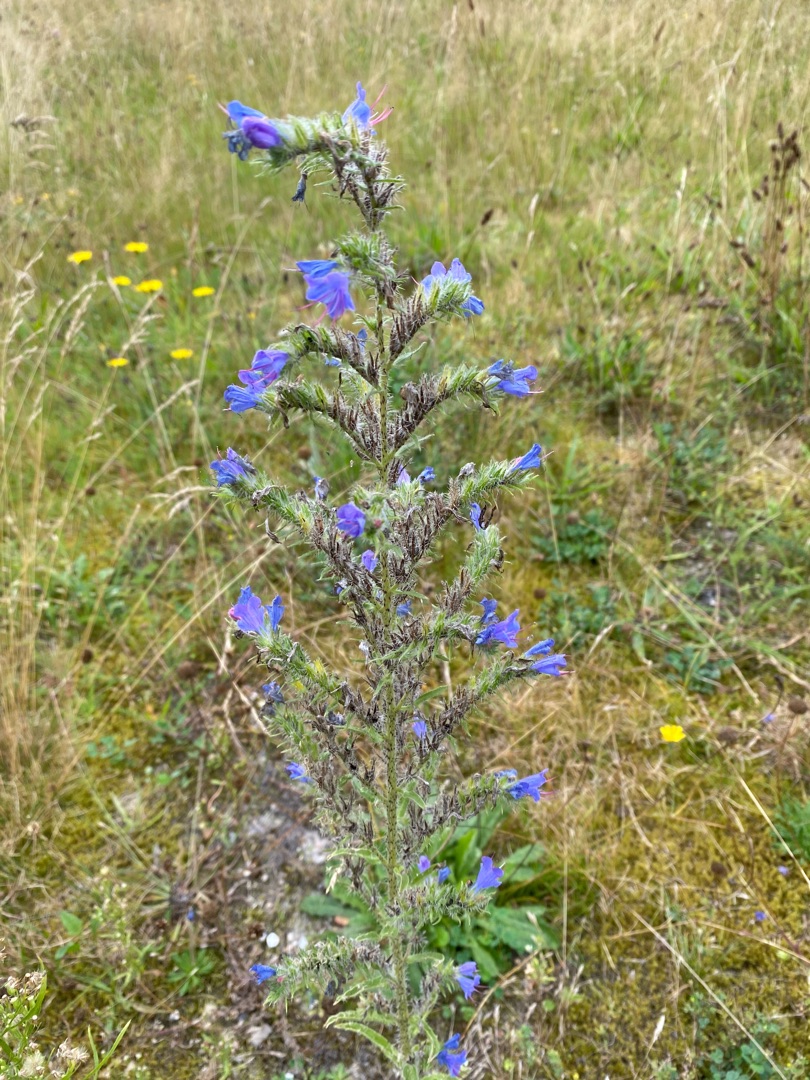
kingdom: Plantae
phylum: Tracheophyta
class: Magnoliopsida
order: Boraginales
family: Boraginaceae
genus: Echium
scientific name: Echium vulgare
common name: Slangehoved
